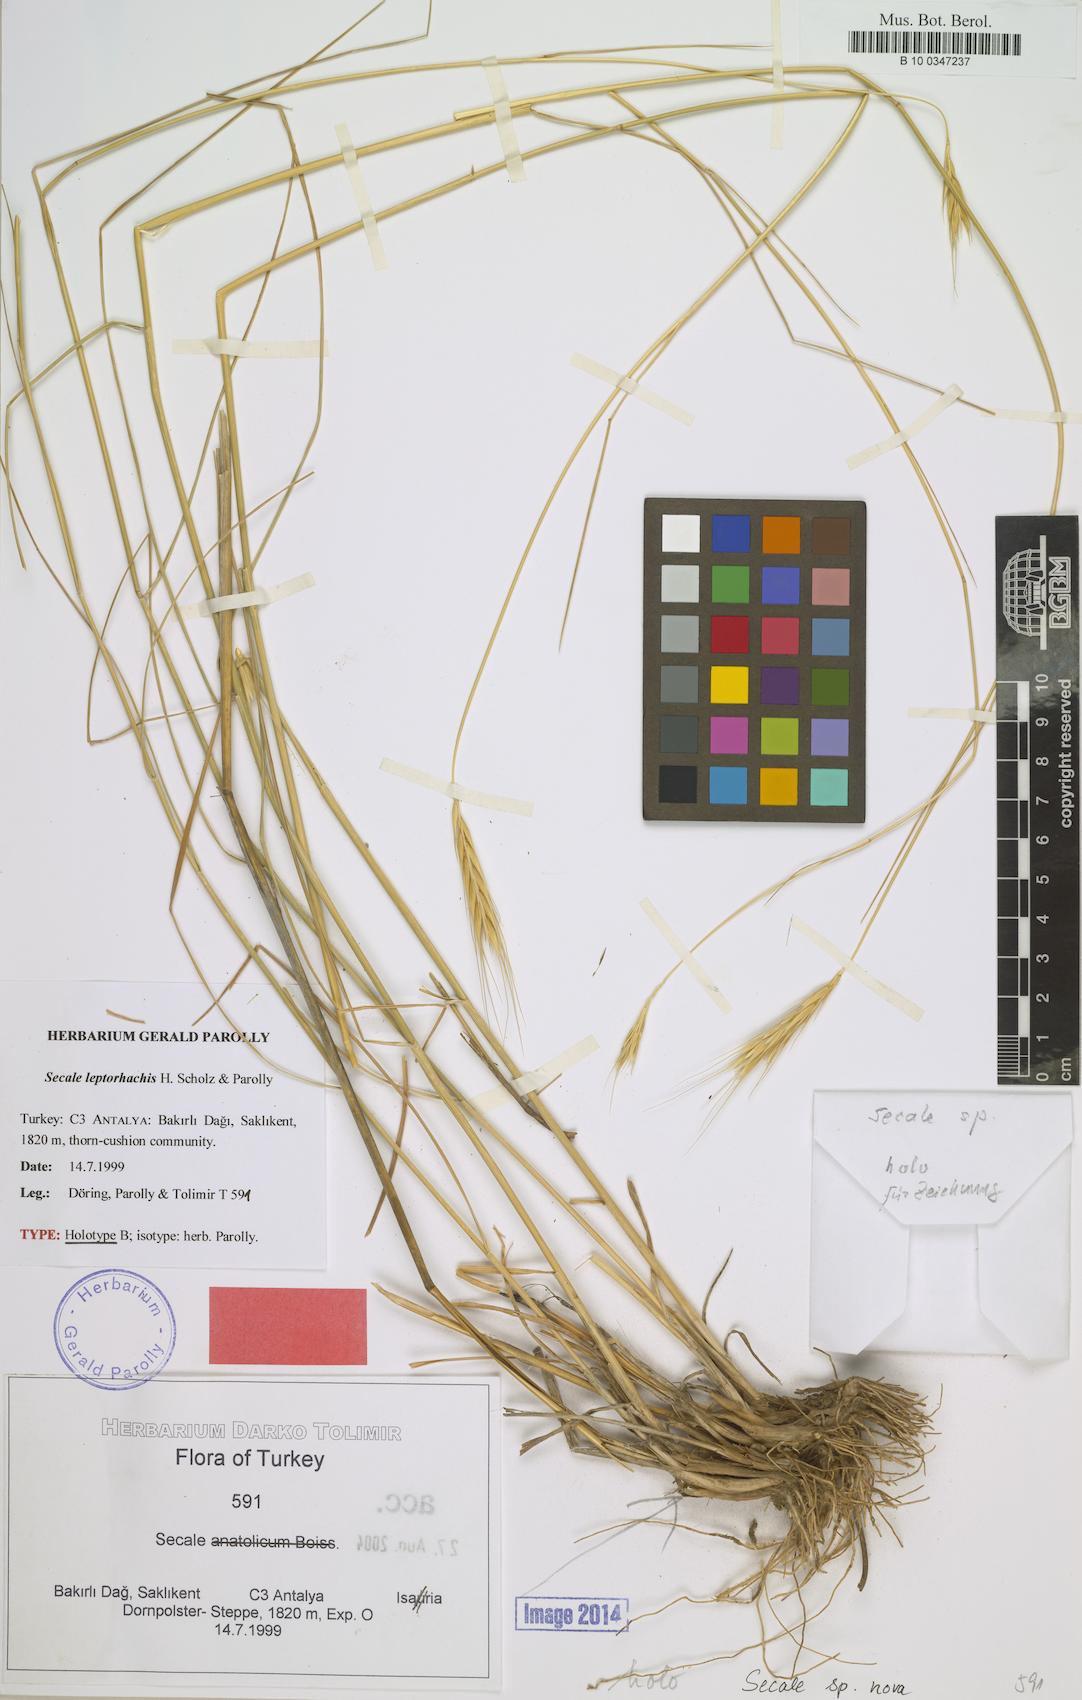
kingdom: Plantae
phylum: Tracheophyta
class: Liliopsida
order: Poales
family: Poaceae
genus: Secale
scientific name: Secale vavilovii
